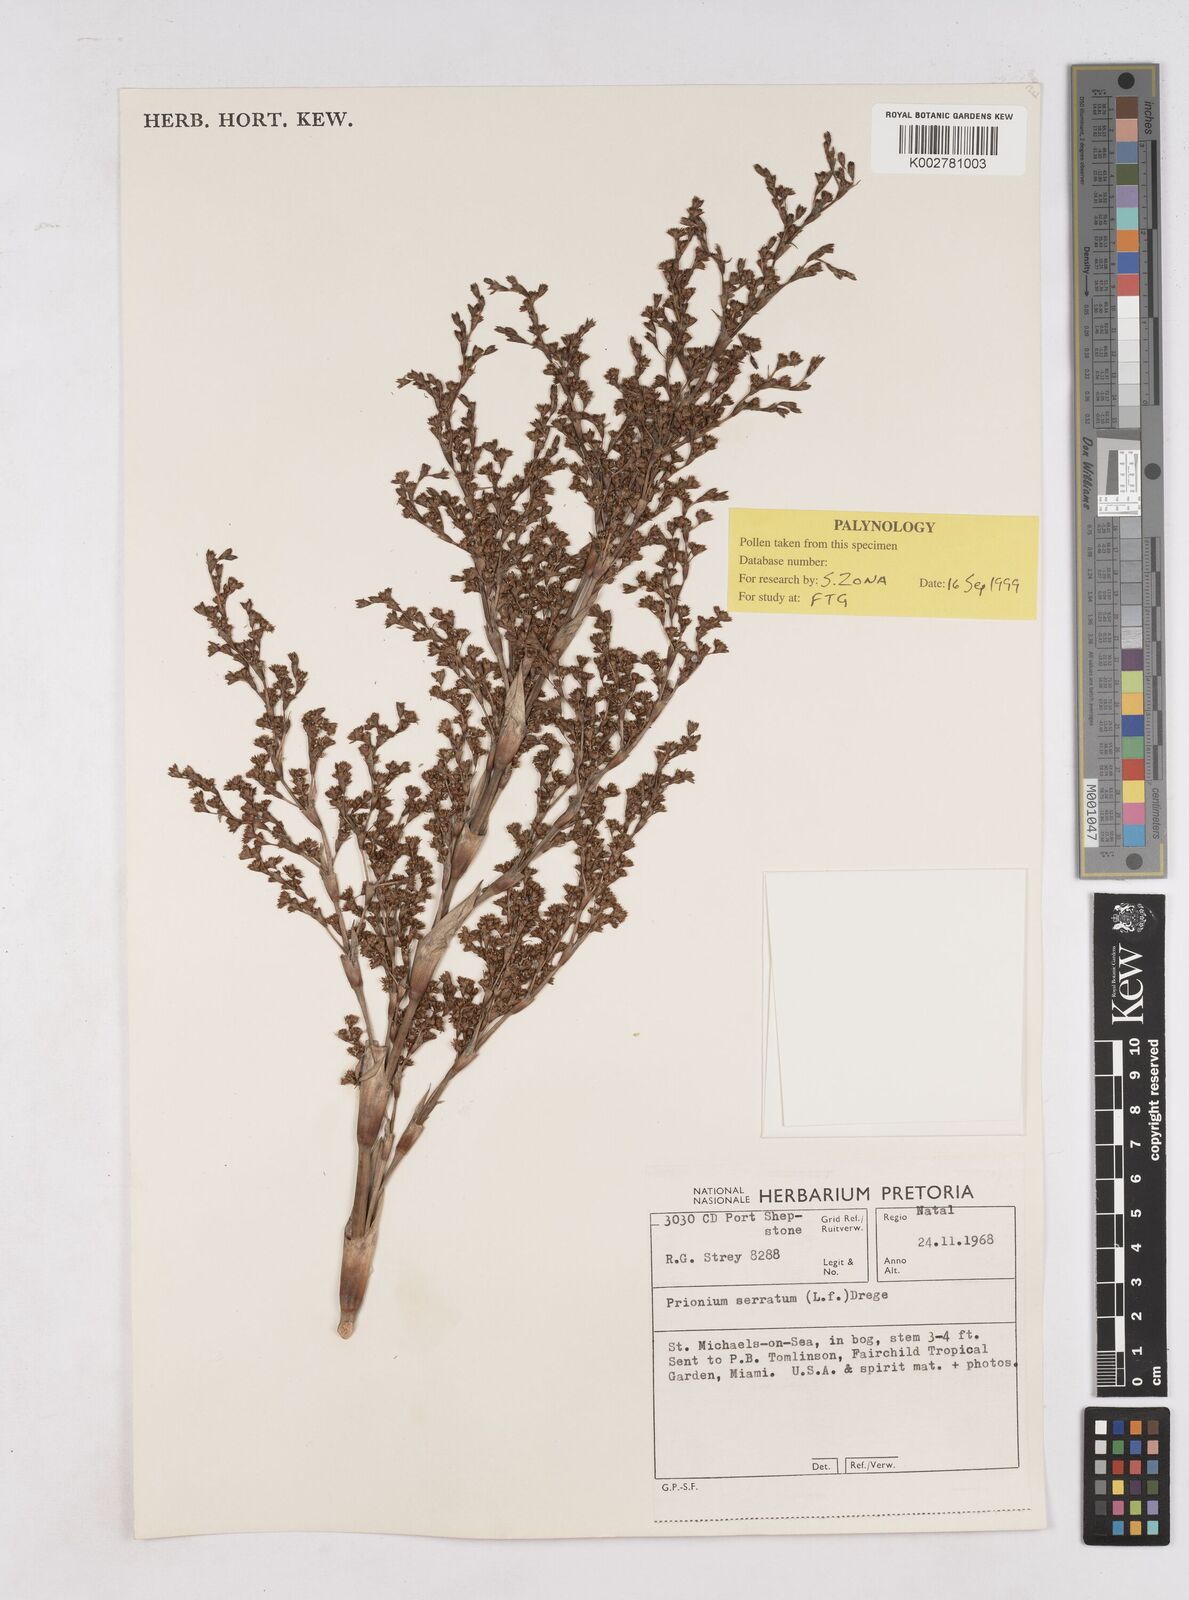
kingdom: Plantae
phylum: Tracheophyta
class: Liliopsida
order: Poales
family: Thurniaceae
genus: Prionium
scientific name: Prionium serratum
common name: Palmiet
